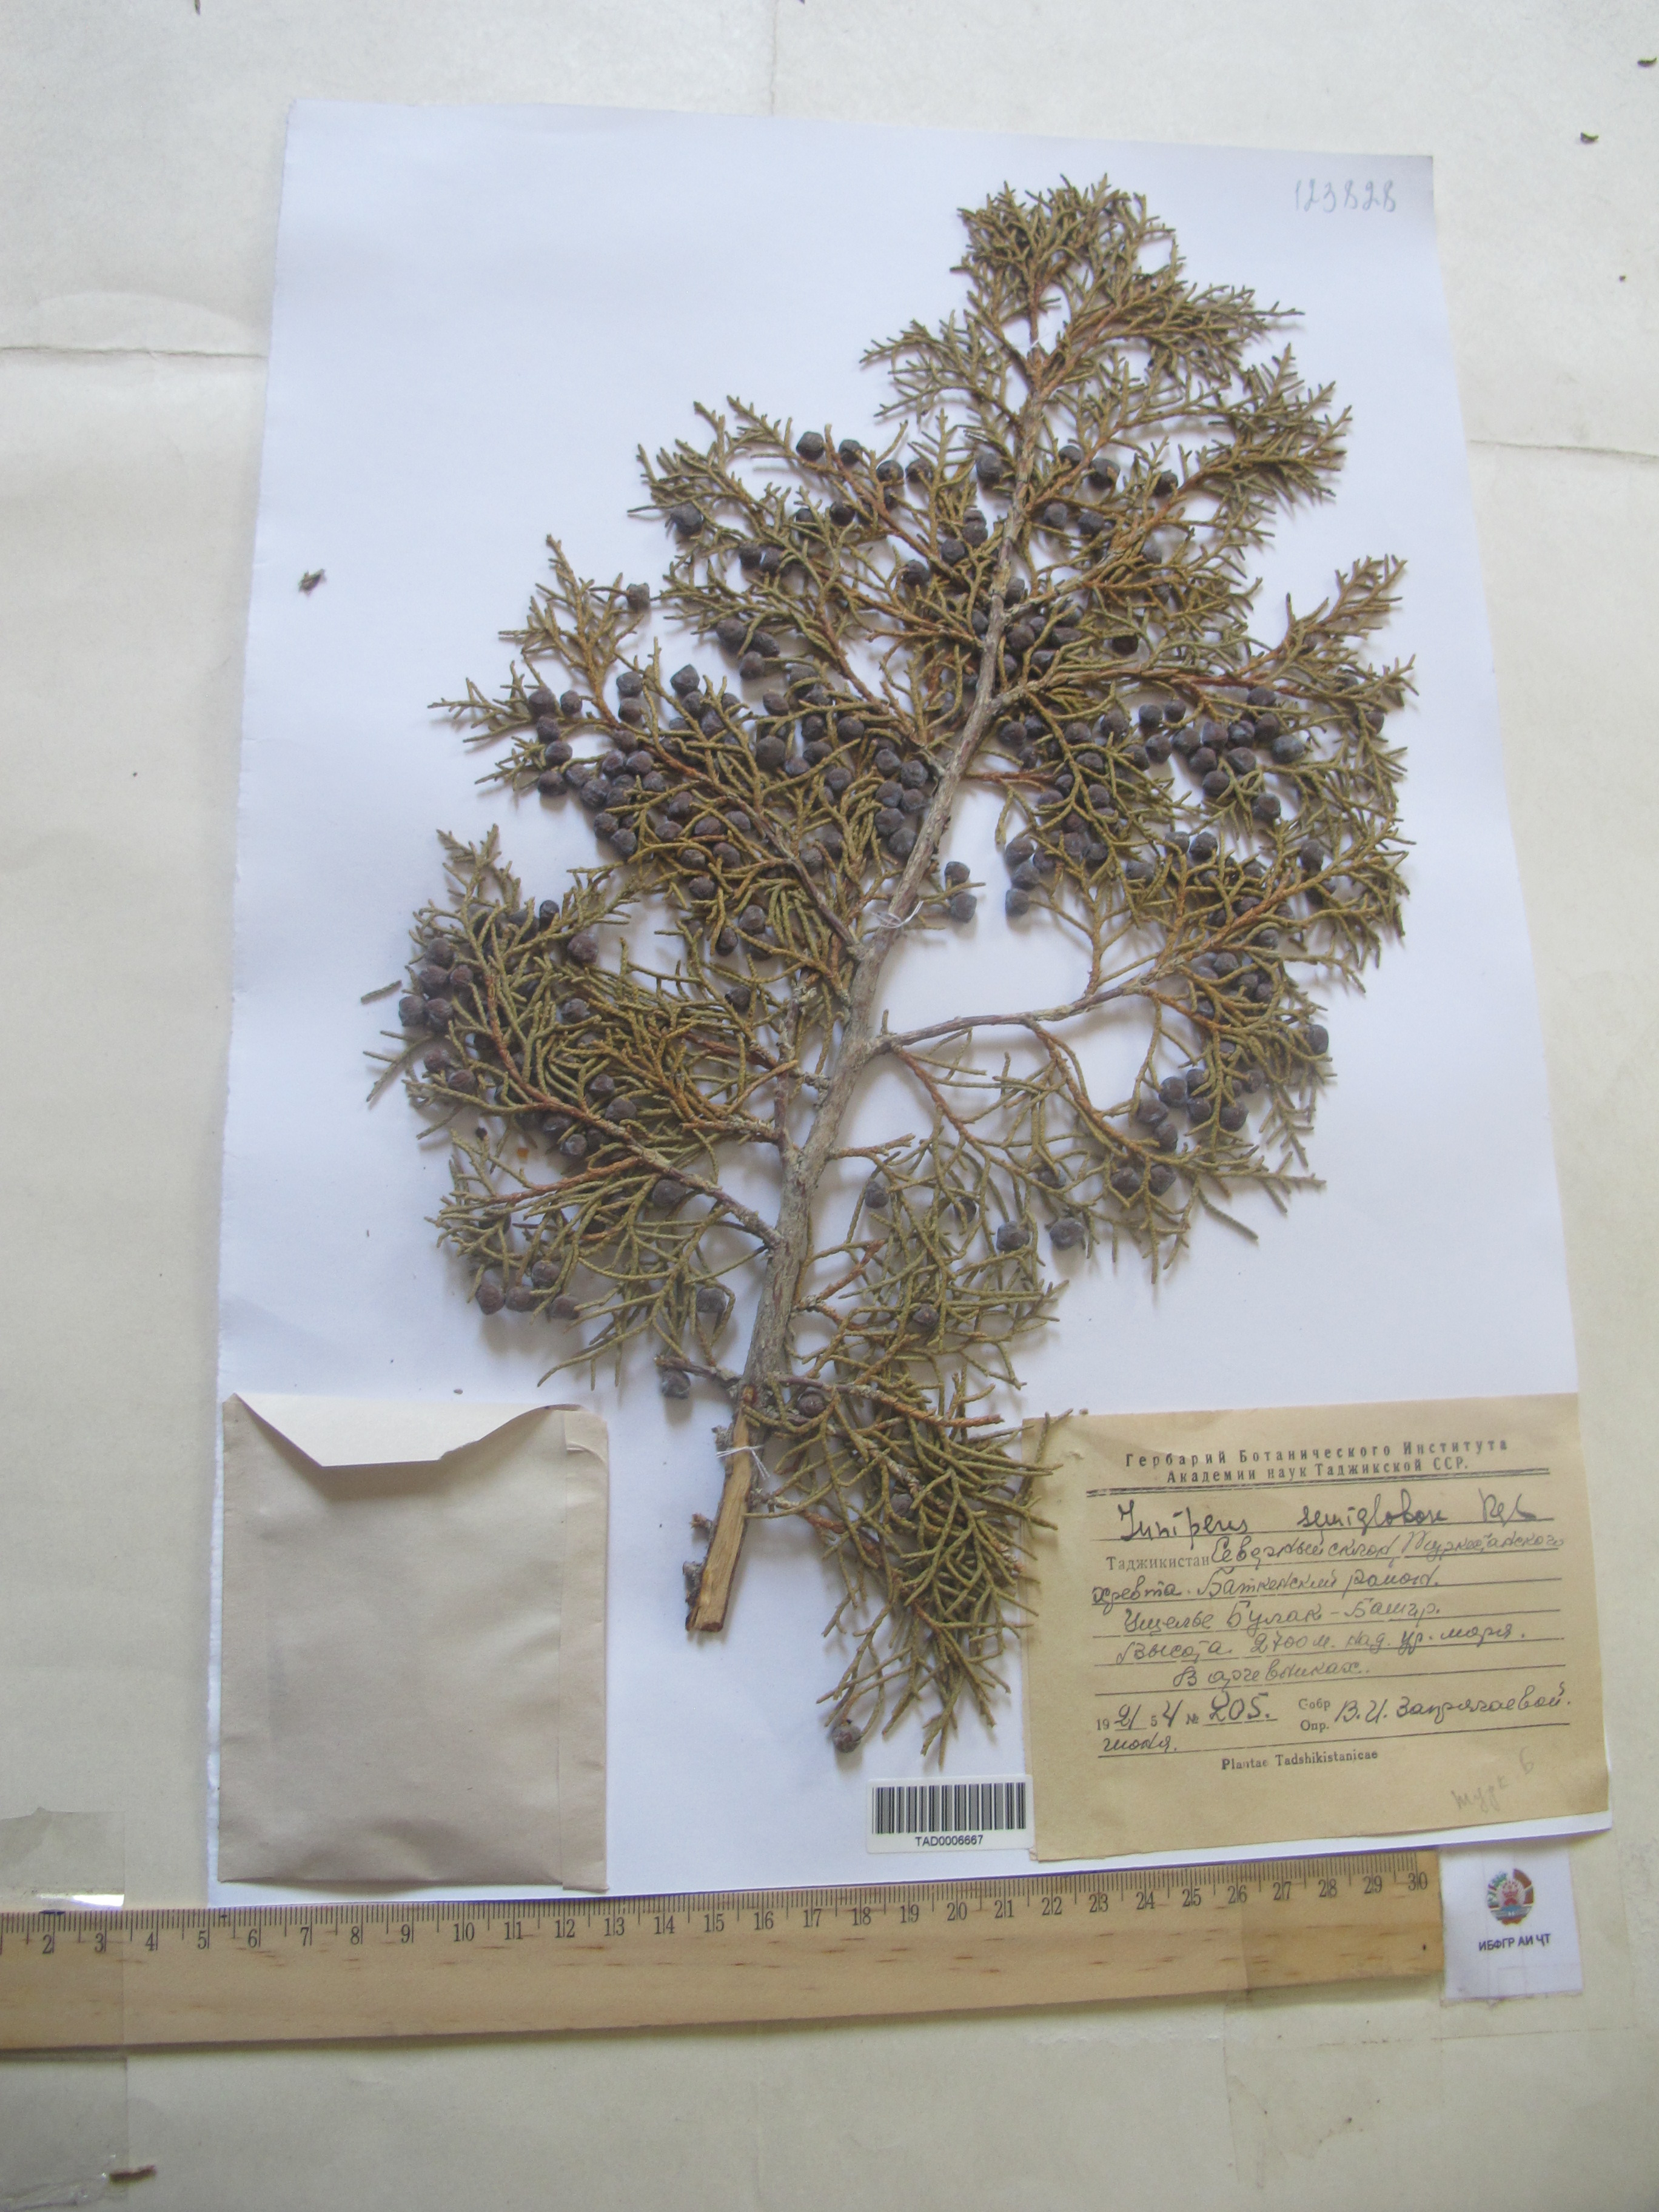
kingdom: Plantae
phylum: Tracheophyta
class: Pinopsida
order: Pinales
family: Cupressaceae
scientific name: Cupressaceae
